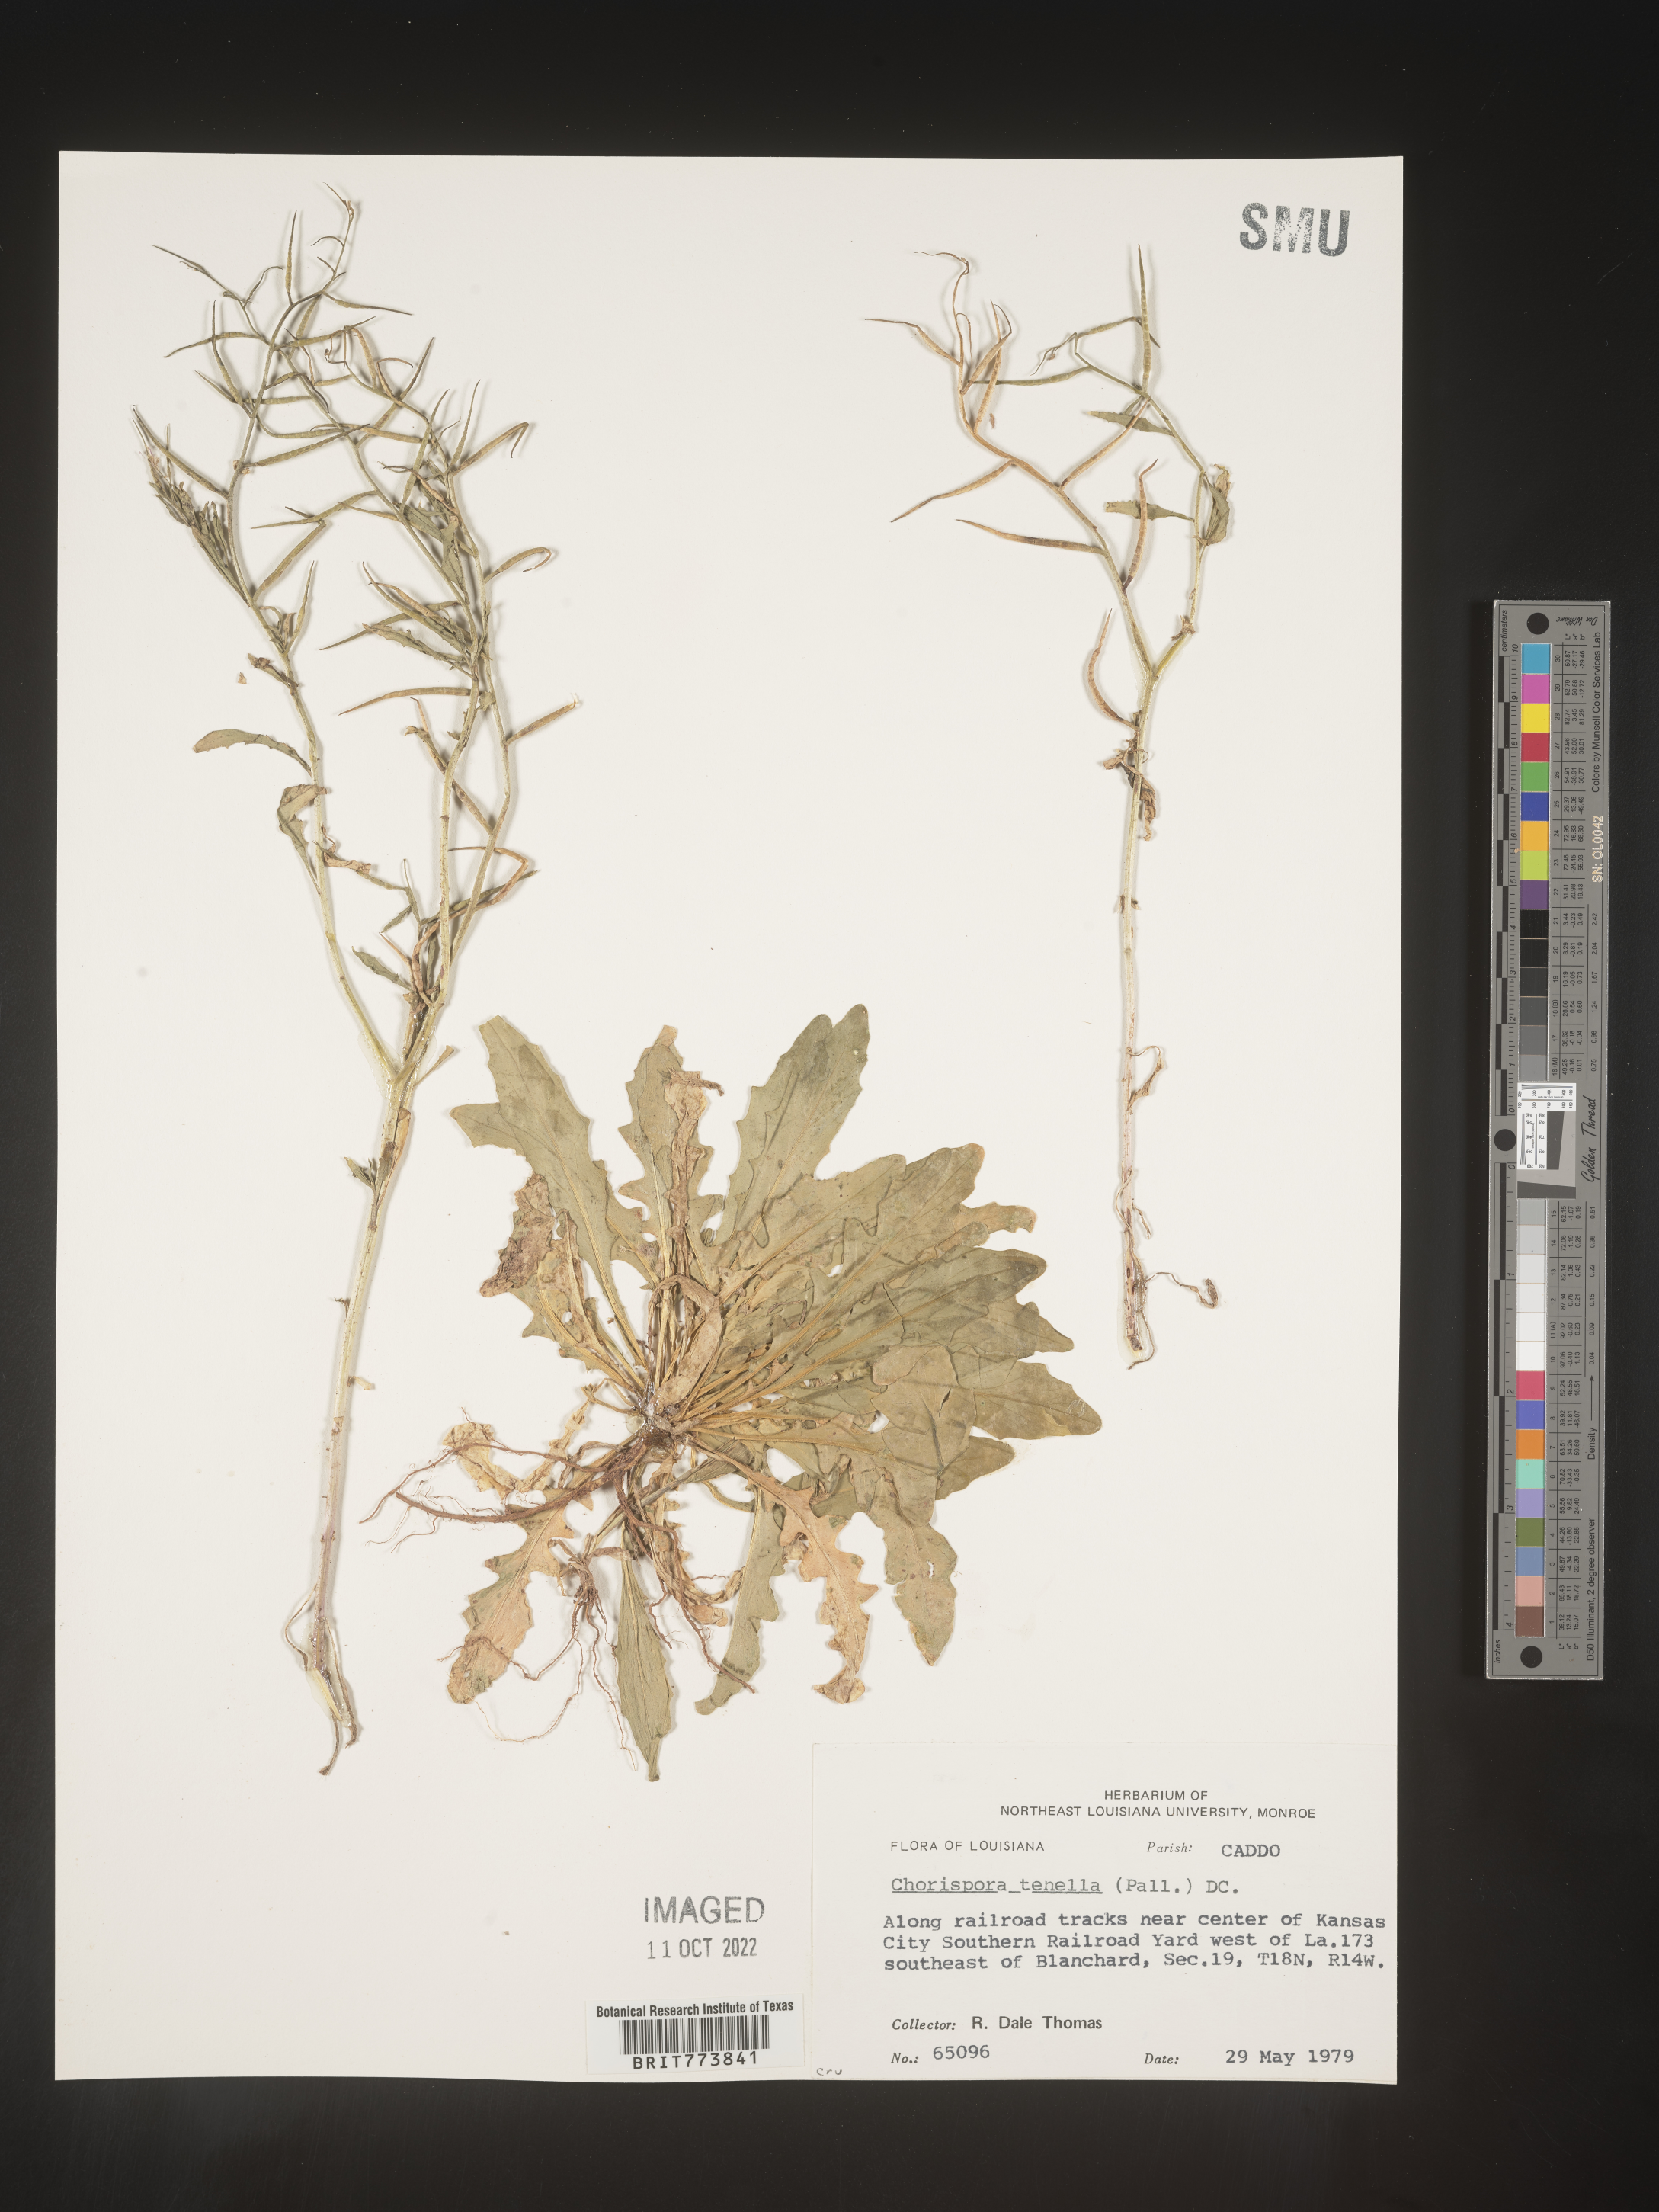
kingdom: Plantae
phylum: Tracheophyta
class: Magnoliopsida
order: Brassicales
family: Brassicaceae
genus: Chorispora
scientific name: Chorispora tenella
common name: Crossflower
